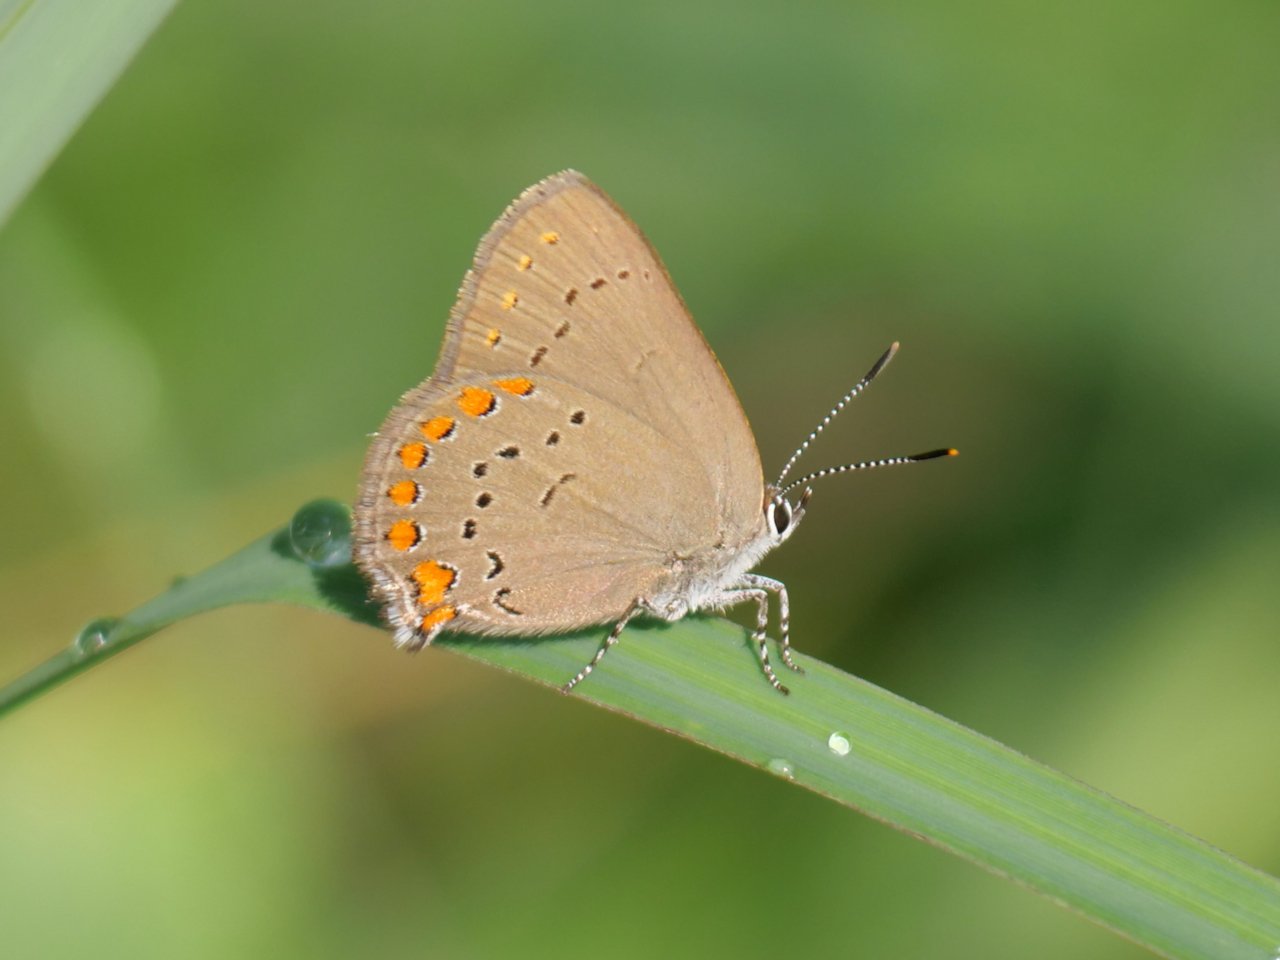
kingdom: Animalia
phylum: Arthropoda
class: Insecta
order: Lepidoptera
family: Lycaenidae
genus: Harkenclenus
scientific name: Harkenclenus titus
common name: Coral Hairstreak
